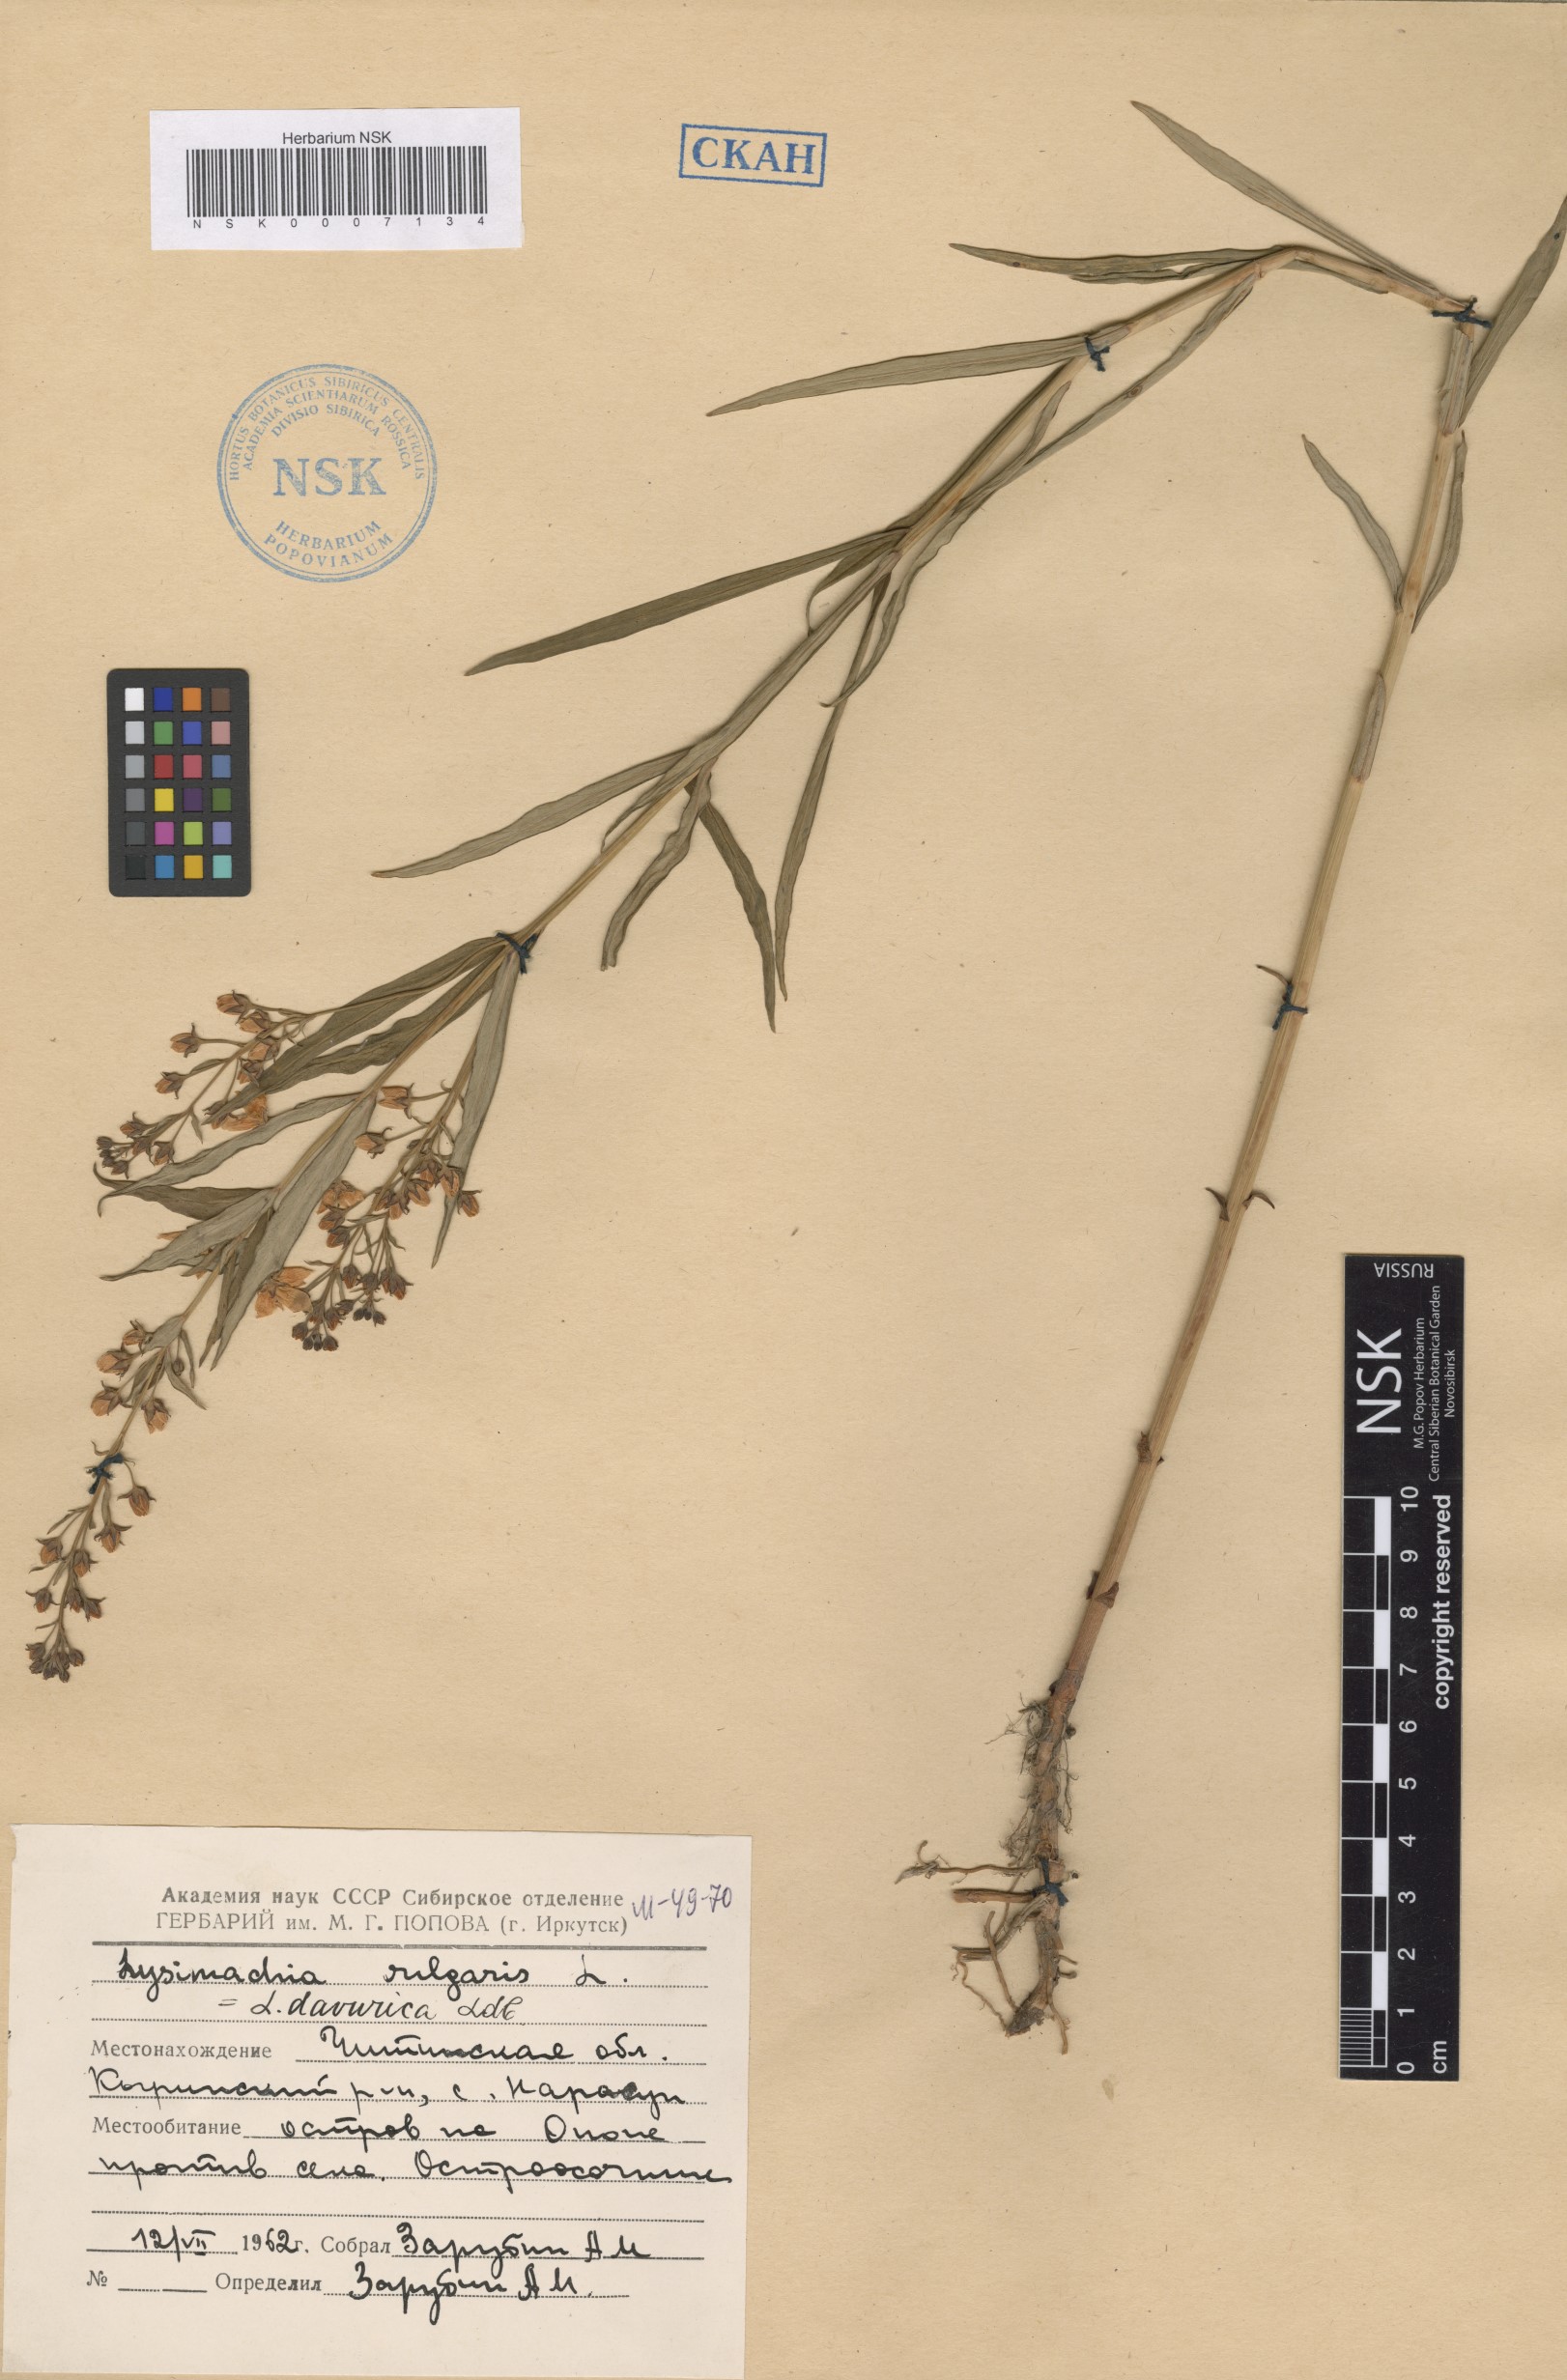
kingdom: Plantae
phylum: Tracheophyta
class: Magnoliopsida
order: Ericales
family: Primulaceae
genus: Lysimachia
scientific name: Lysimachia davurica
